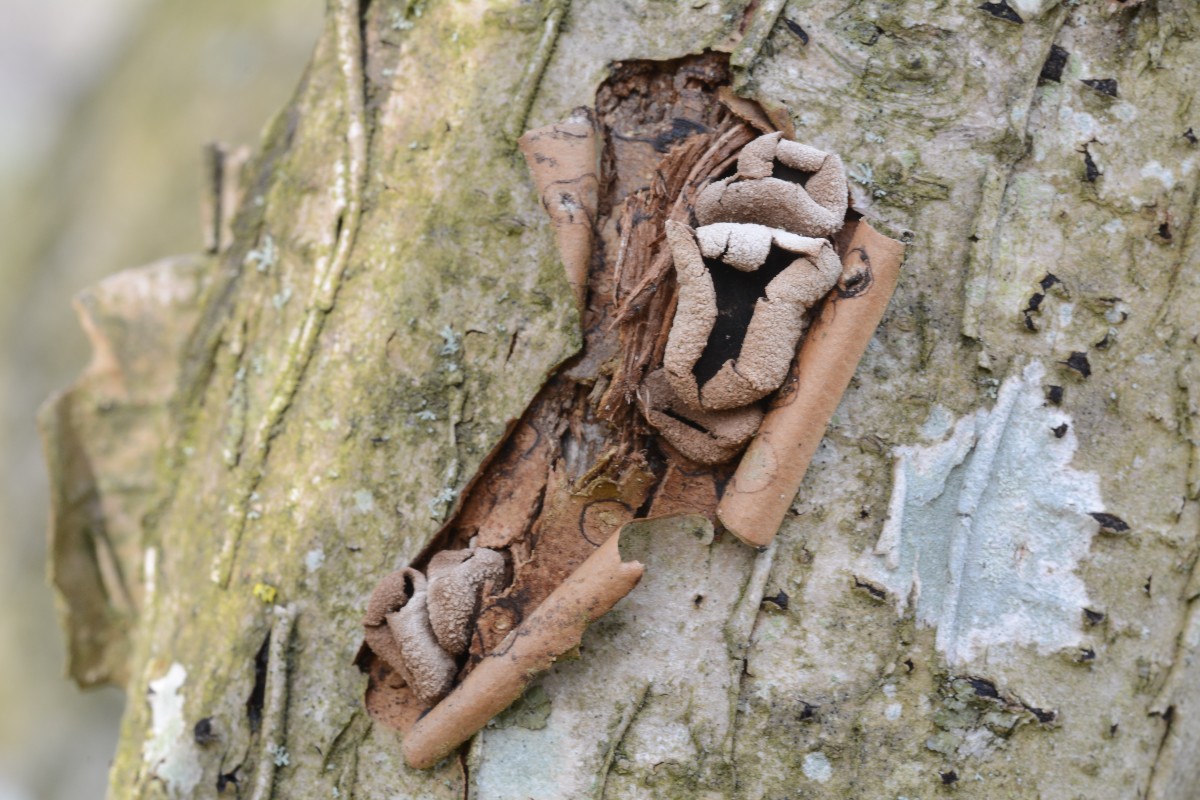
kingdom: Fungi
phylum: Ascomycota
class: Leotiomycetes
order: Helotiales
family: Cenangiaceae
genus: Encoelia
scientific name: Encoelia furfuracea
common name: hassel-læderskive
